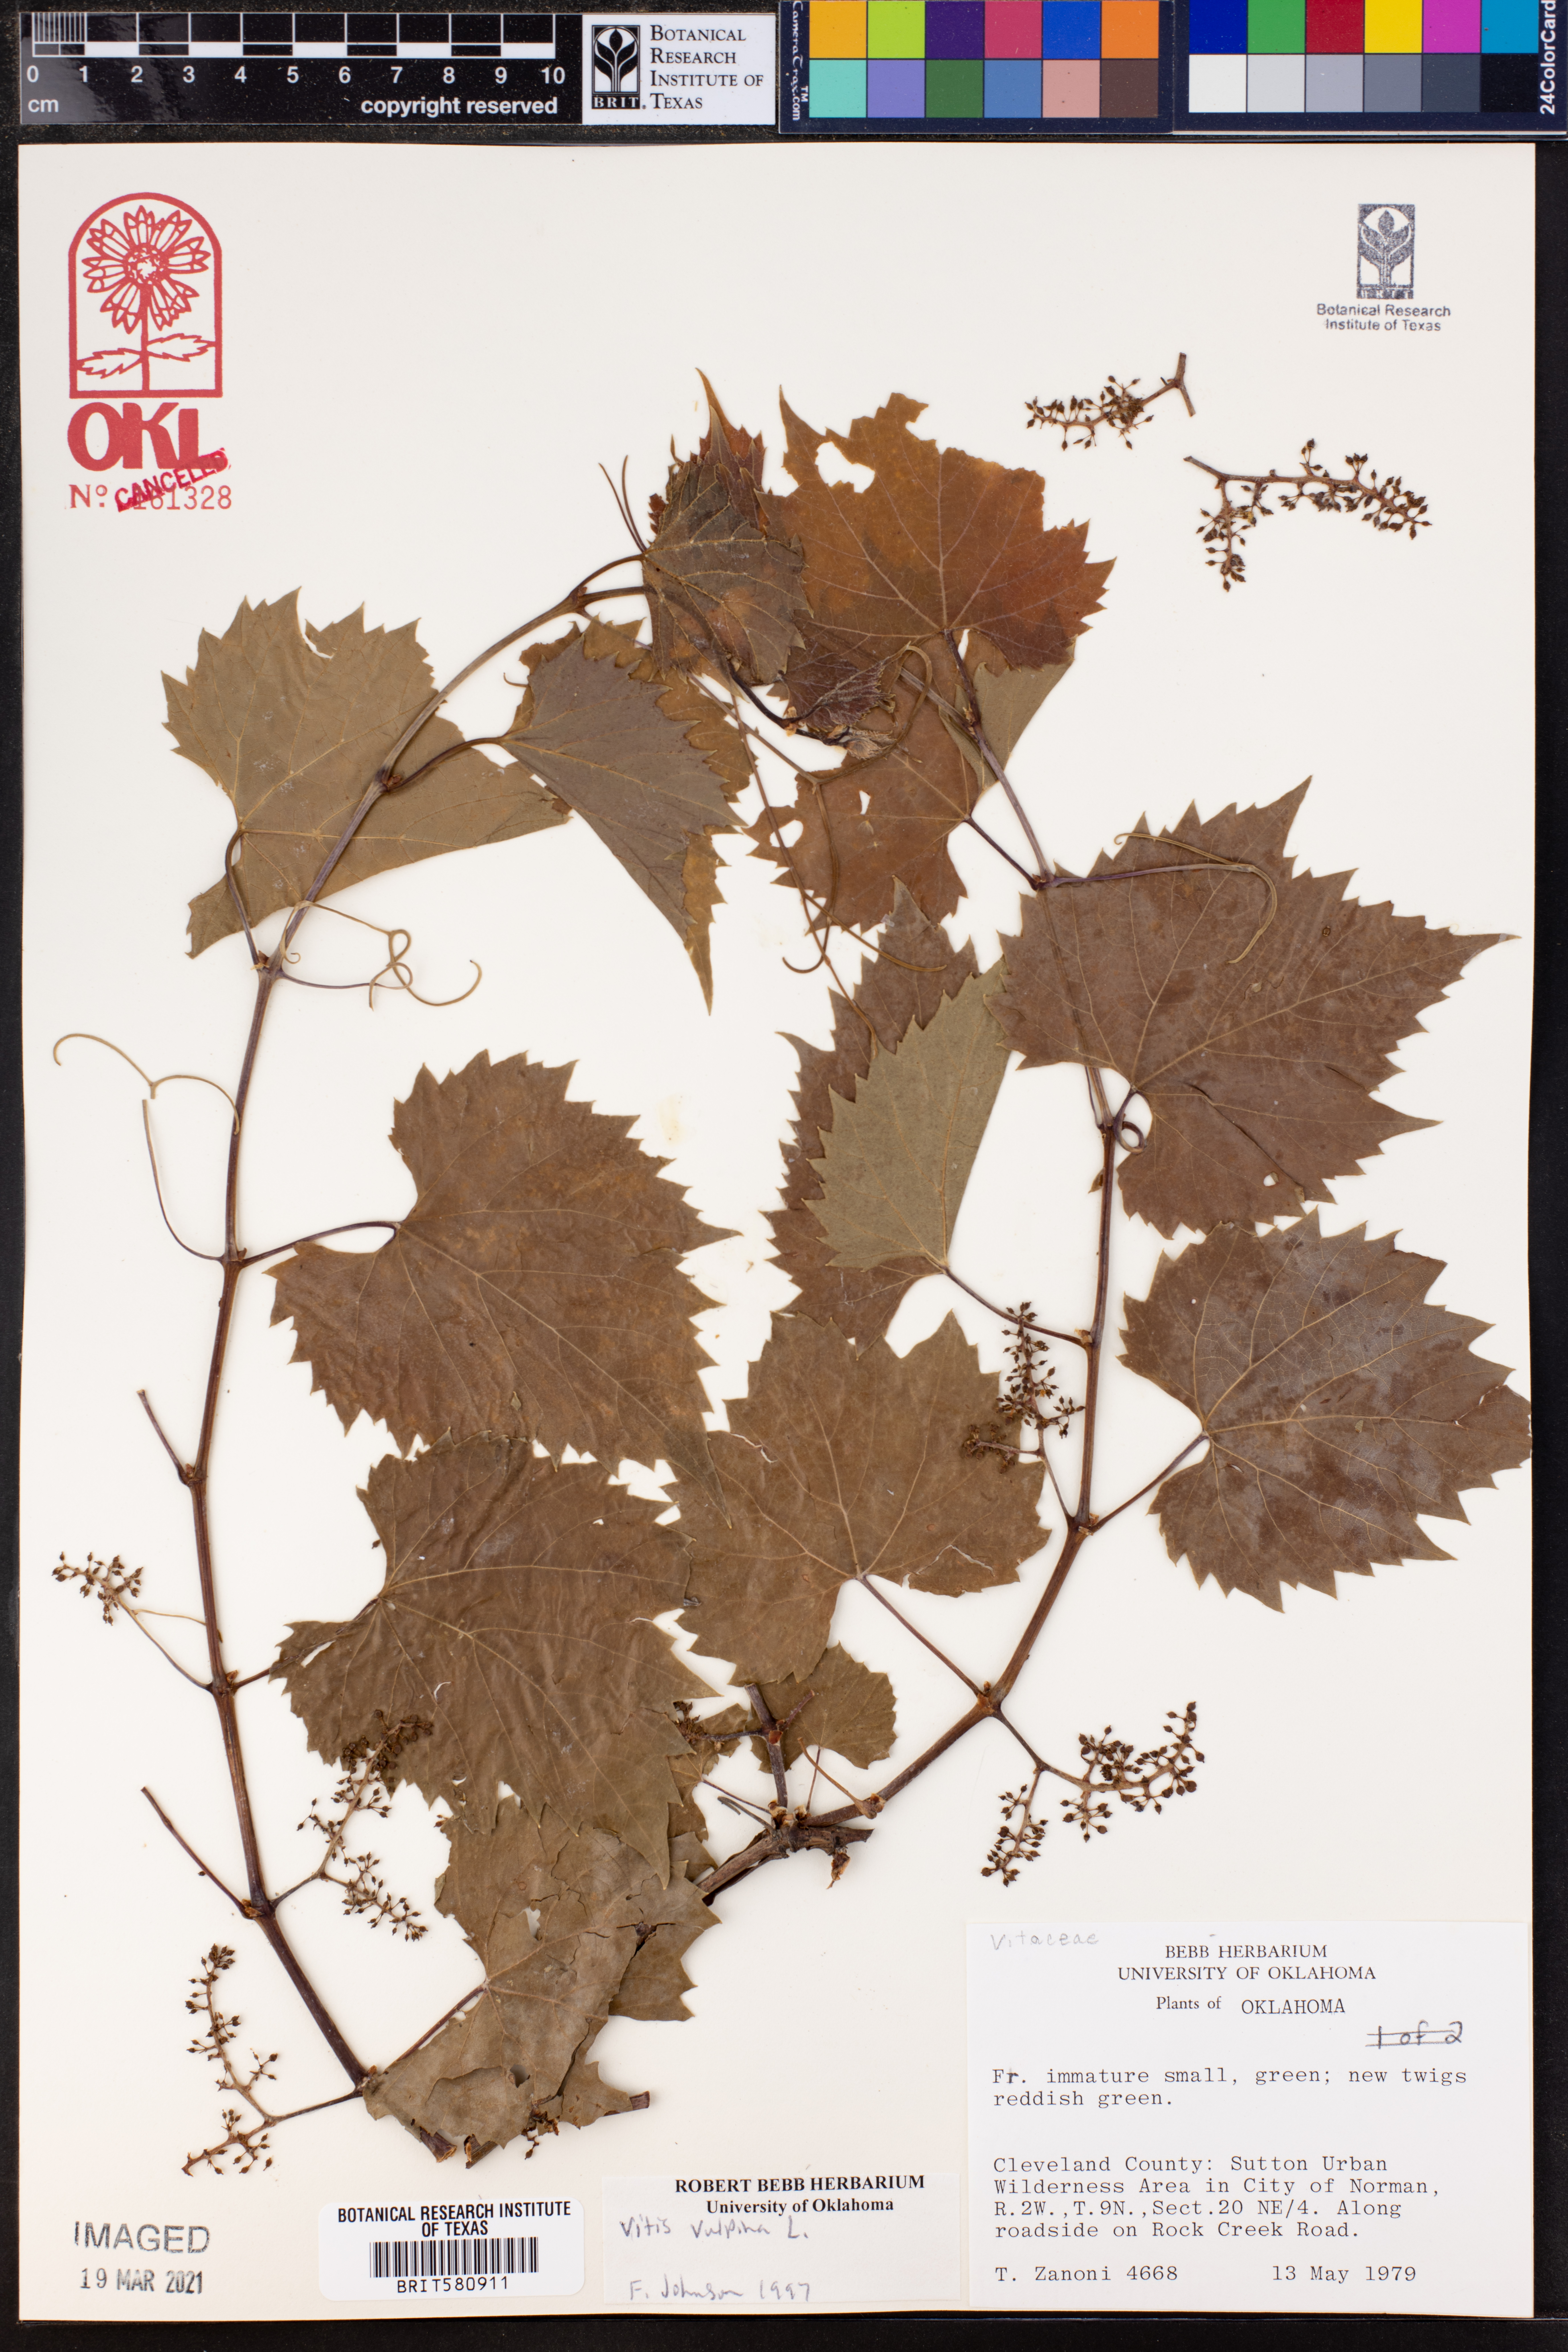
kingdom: Plantae
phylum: Tracheophyta
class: Magnoliopsida
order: Vitales
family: Vitaceae
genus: Vitis
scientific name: Vitis vulpina
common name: Frost grape
